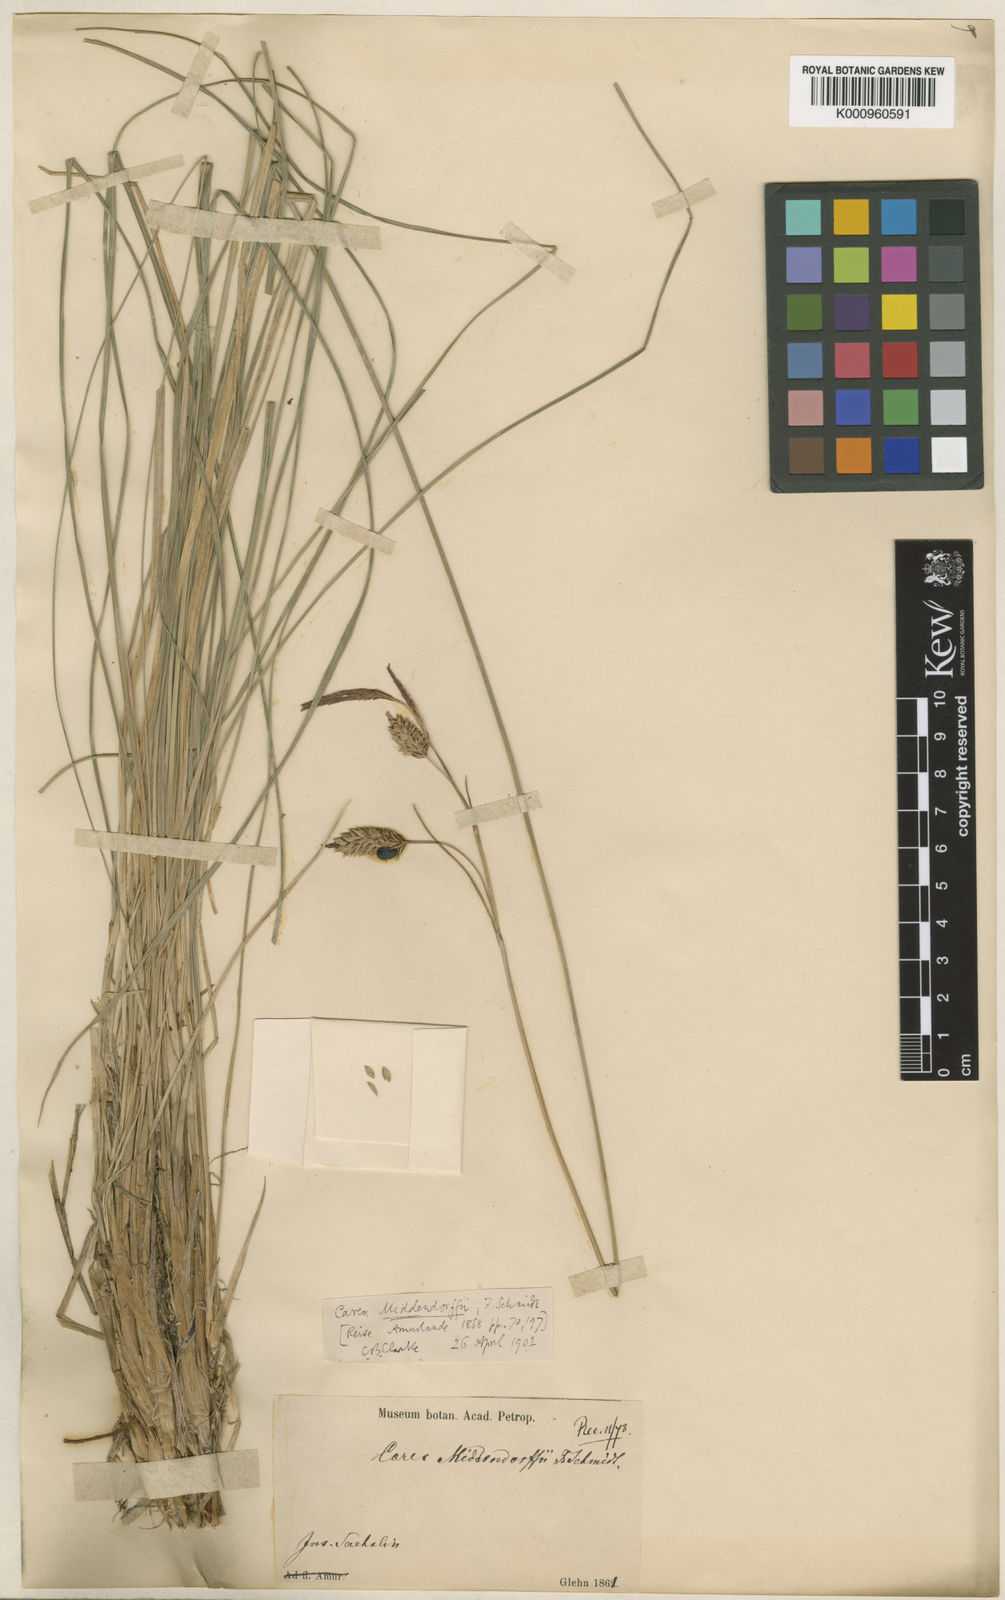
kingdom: Plantae
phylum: Tracheophyta
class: Liliopsida
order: Poales
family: Cyperaceae
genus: Carex
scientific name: Carex middendorffii
